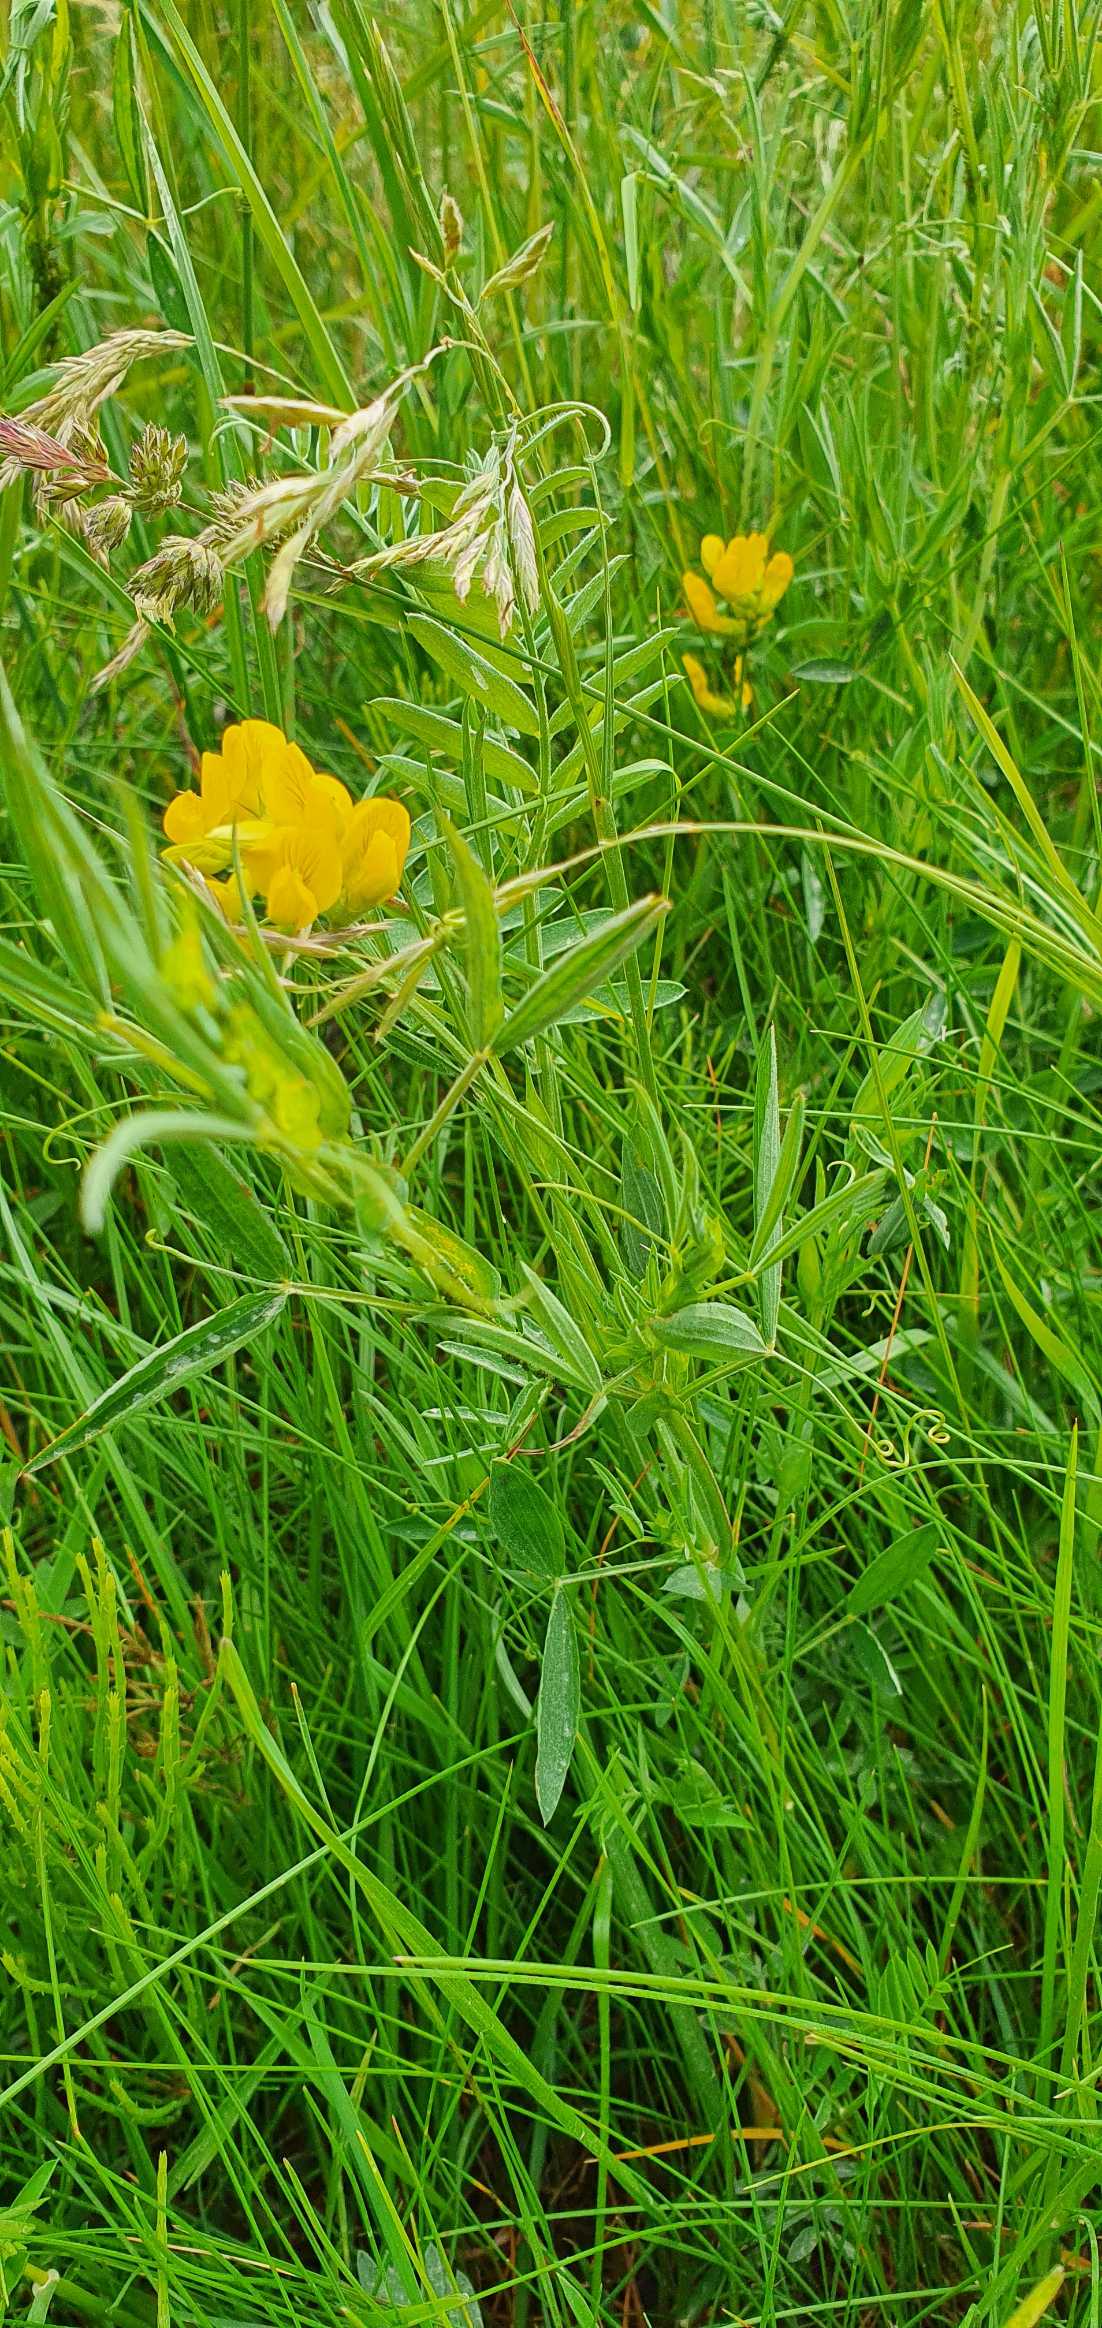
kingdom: Plantae
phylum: Tracheophyta
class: Magnoliopsida
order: Fabales
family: Fabaceae
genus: Lathyrus
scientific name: Lathyrus pratensis
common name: Gul fladbælg
